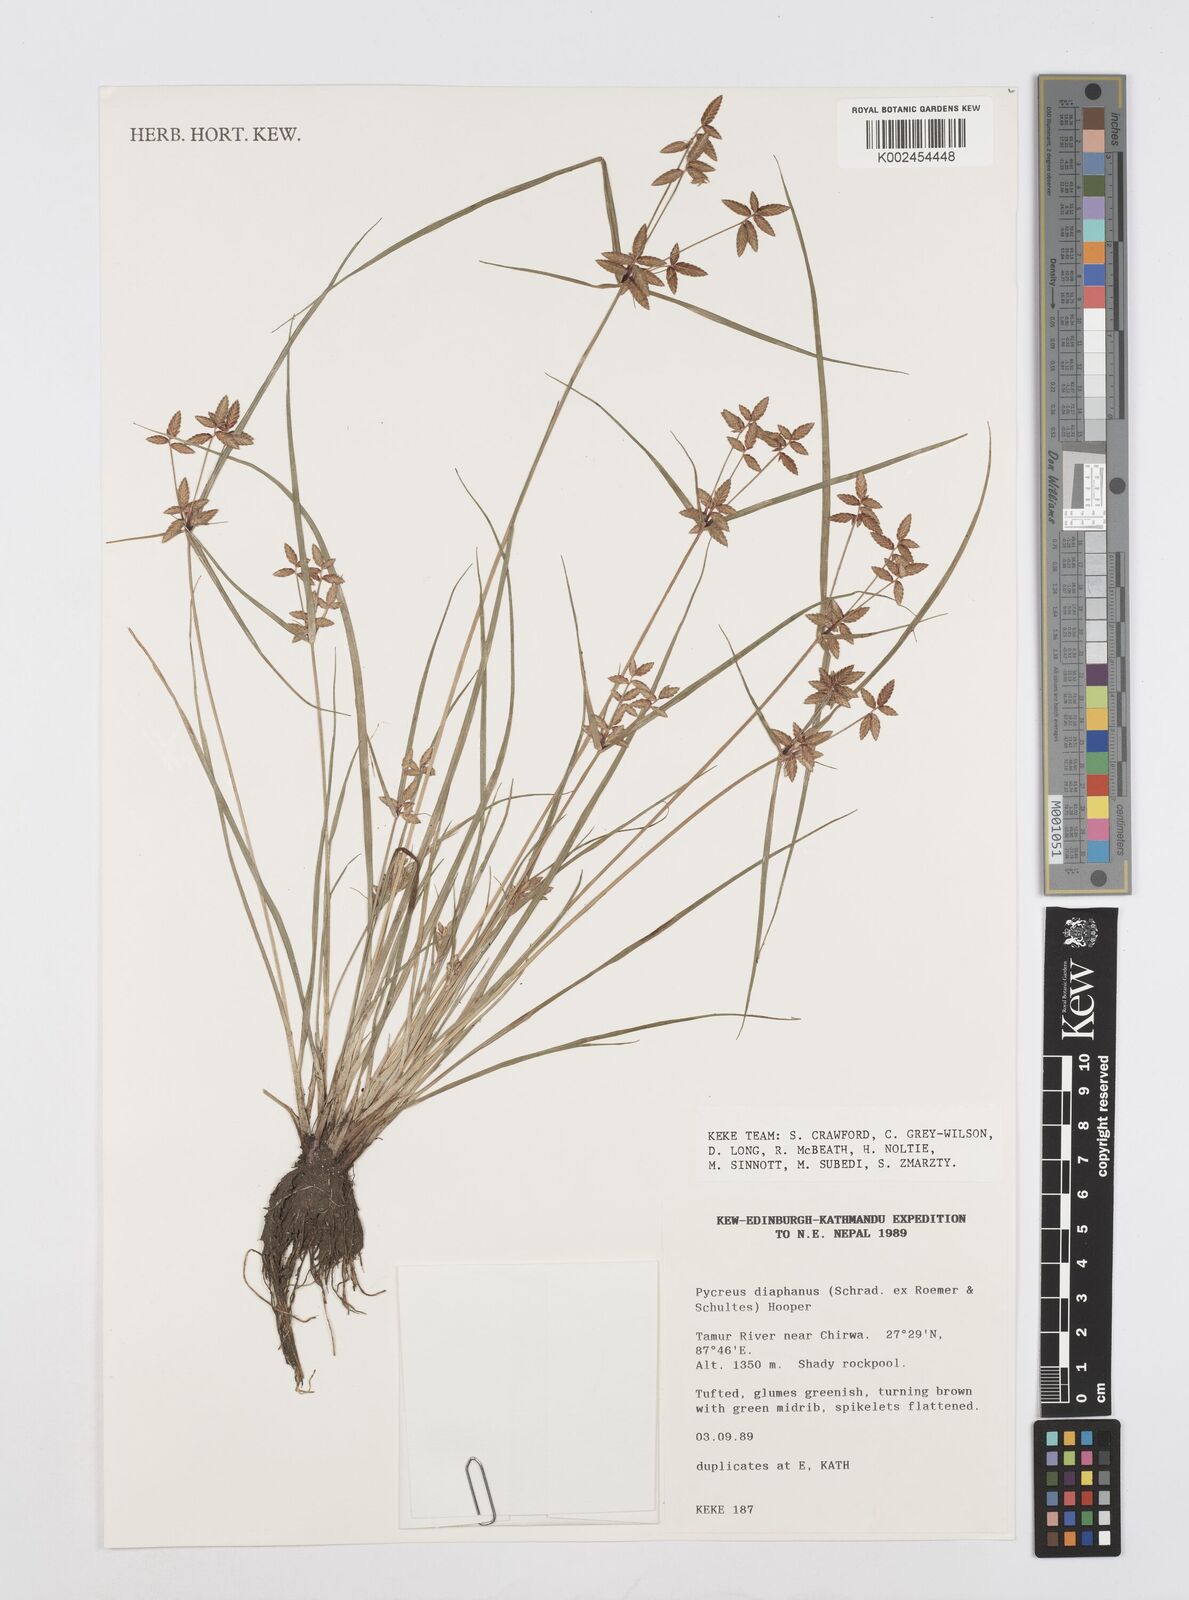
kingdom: Plantae
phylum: Tracheophyta
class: Liliopsida
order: Poales
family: Cyperaceae
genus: Cyperus
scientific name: Cyperus diaphanus
